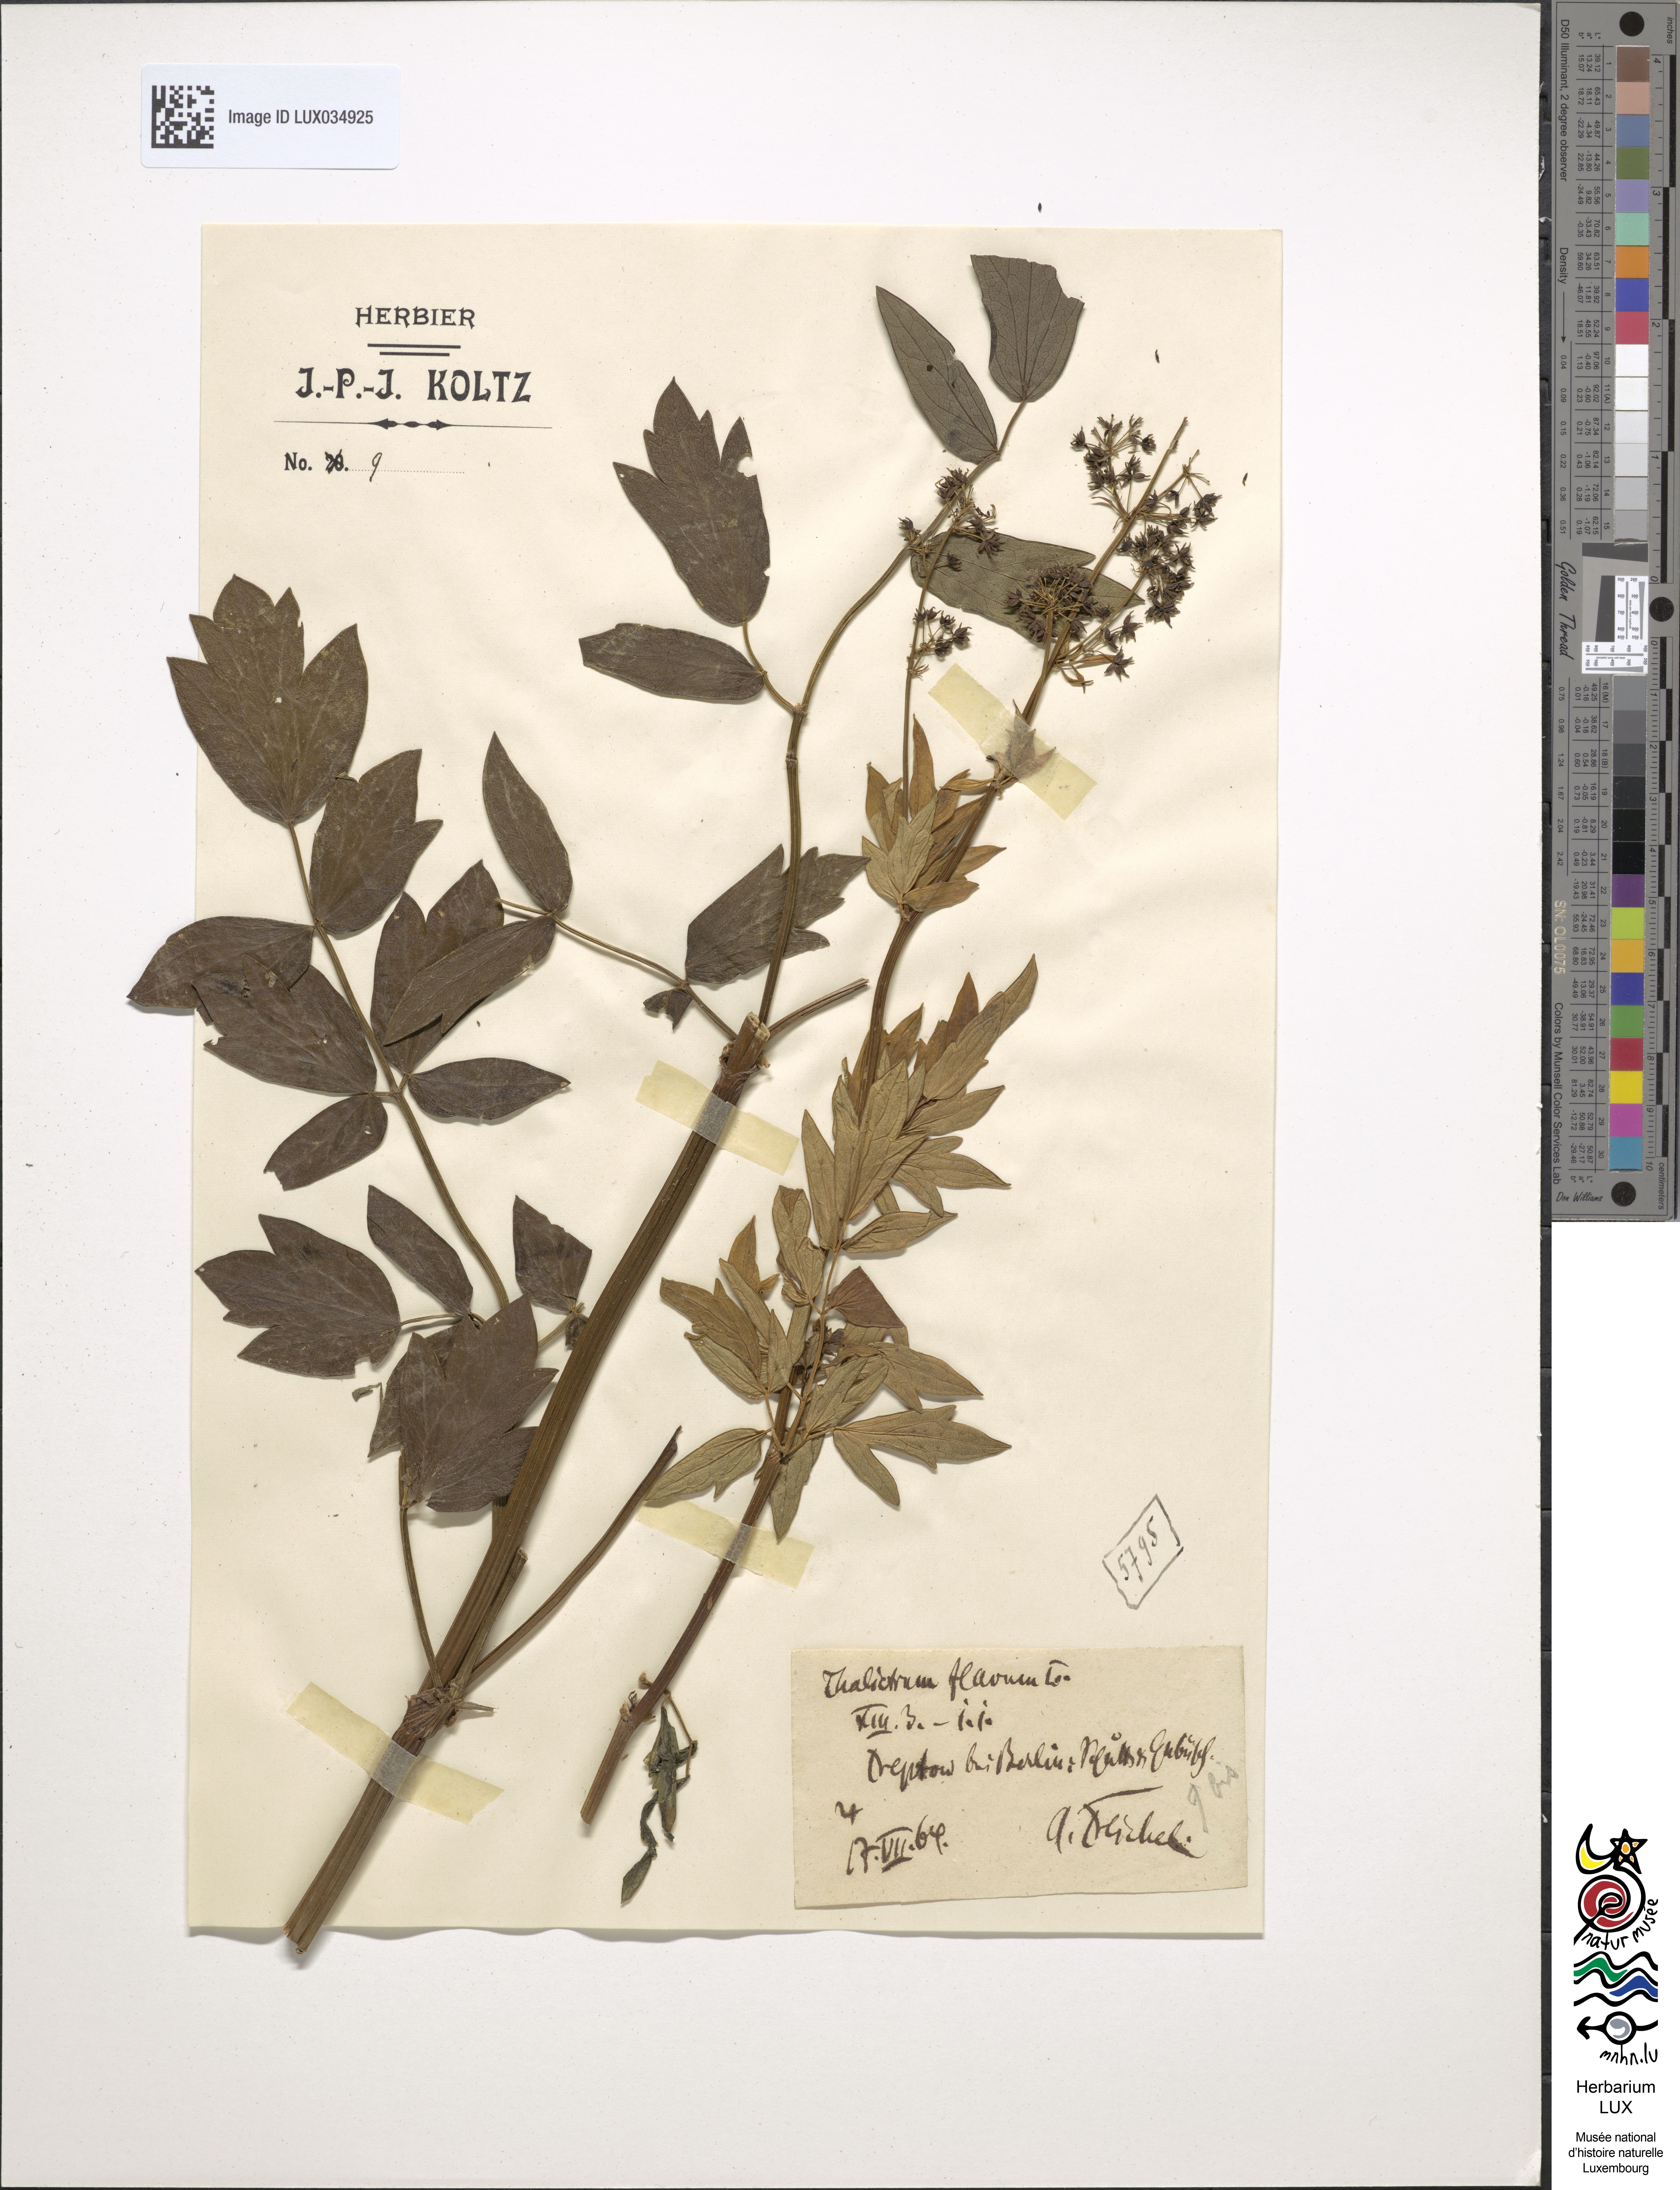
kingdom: Plantae
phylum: Tracheophyta
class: Magnoliopsida
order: Ranunculales
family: Ranunculaceae
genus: Thalictrum
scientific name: Thalictrum flavum
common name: Common meadow-rue
